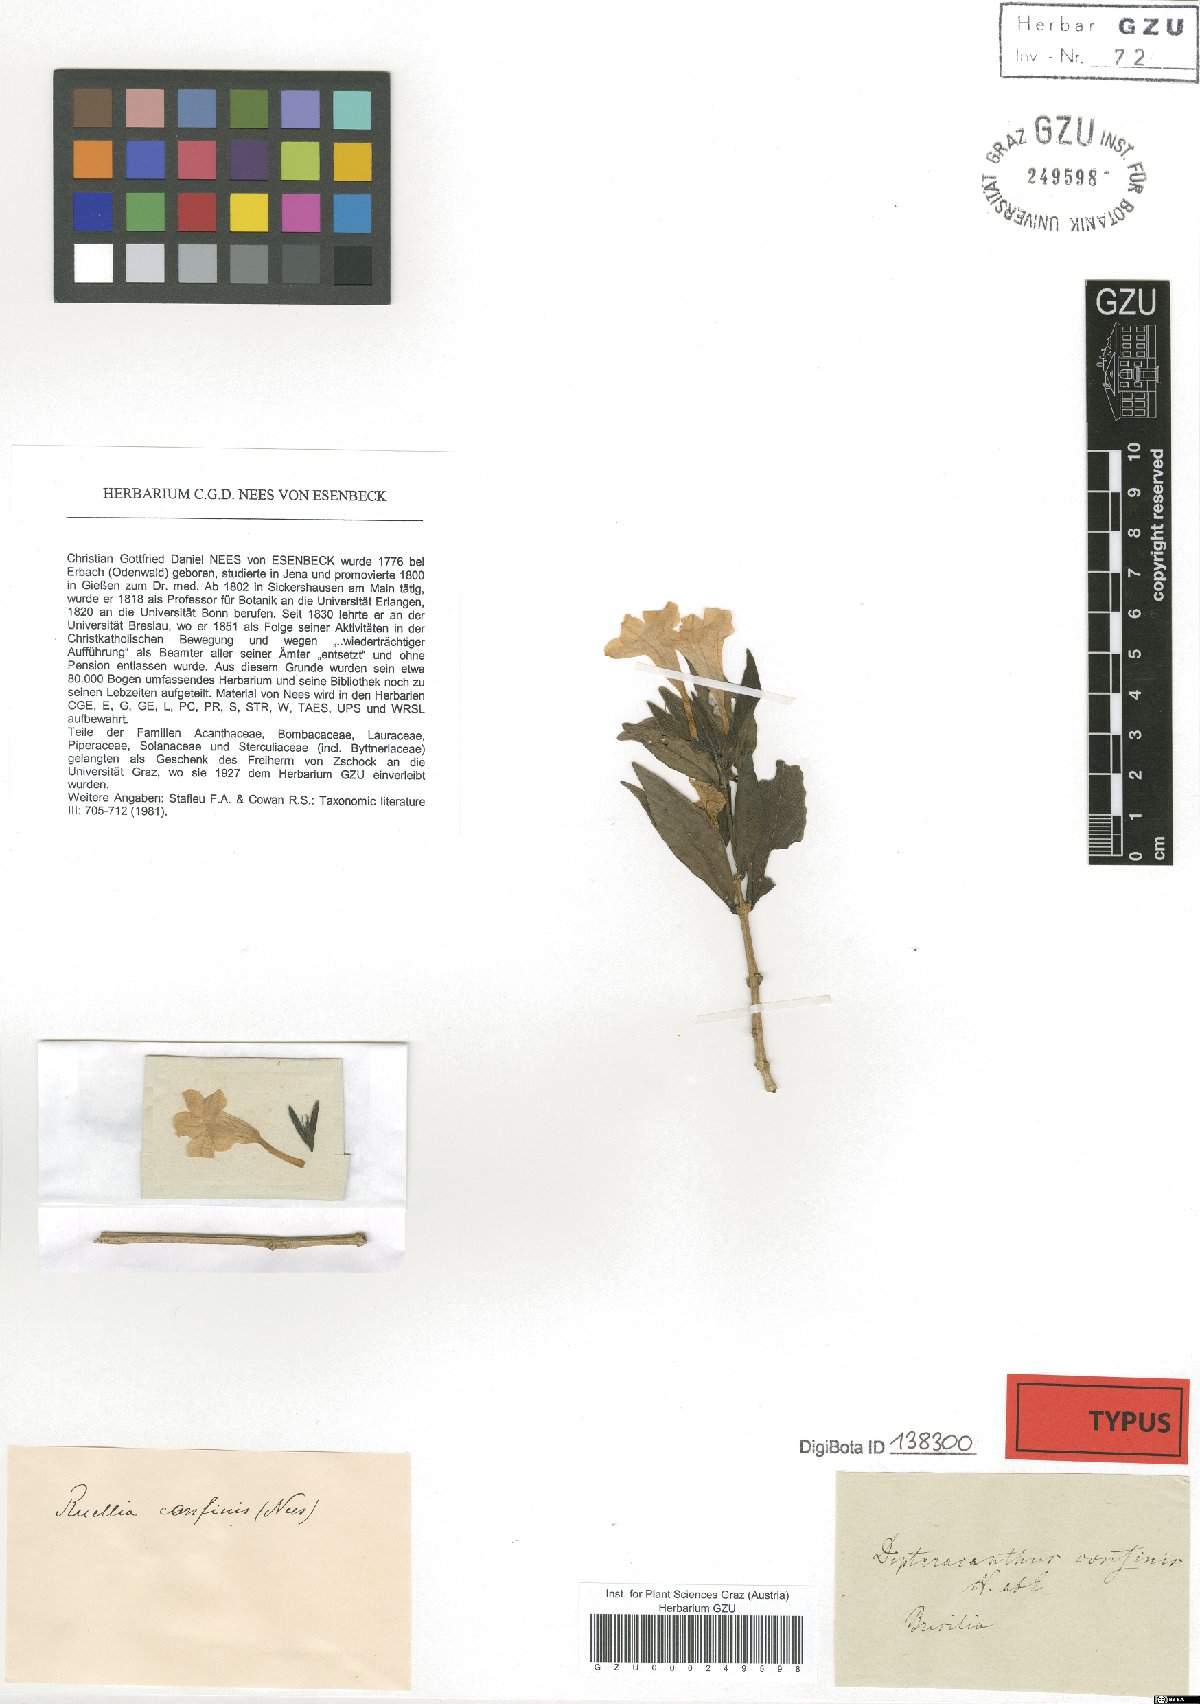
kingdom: Plantae
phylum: Tracheophyta
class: Magnoliopsida
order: Lamiales
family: Acanthaceae
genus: Ruellia
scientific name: Ruellia solitaria
